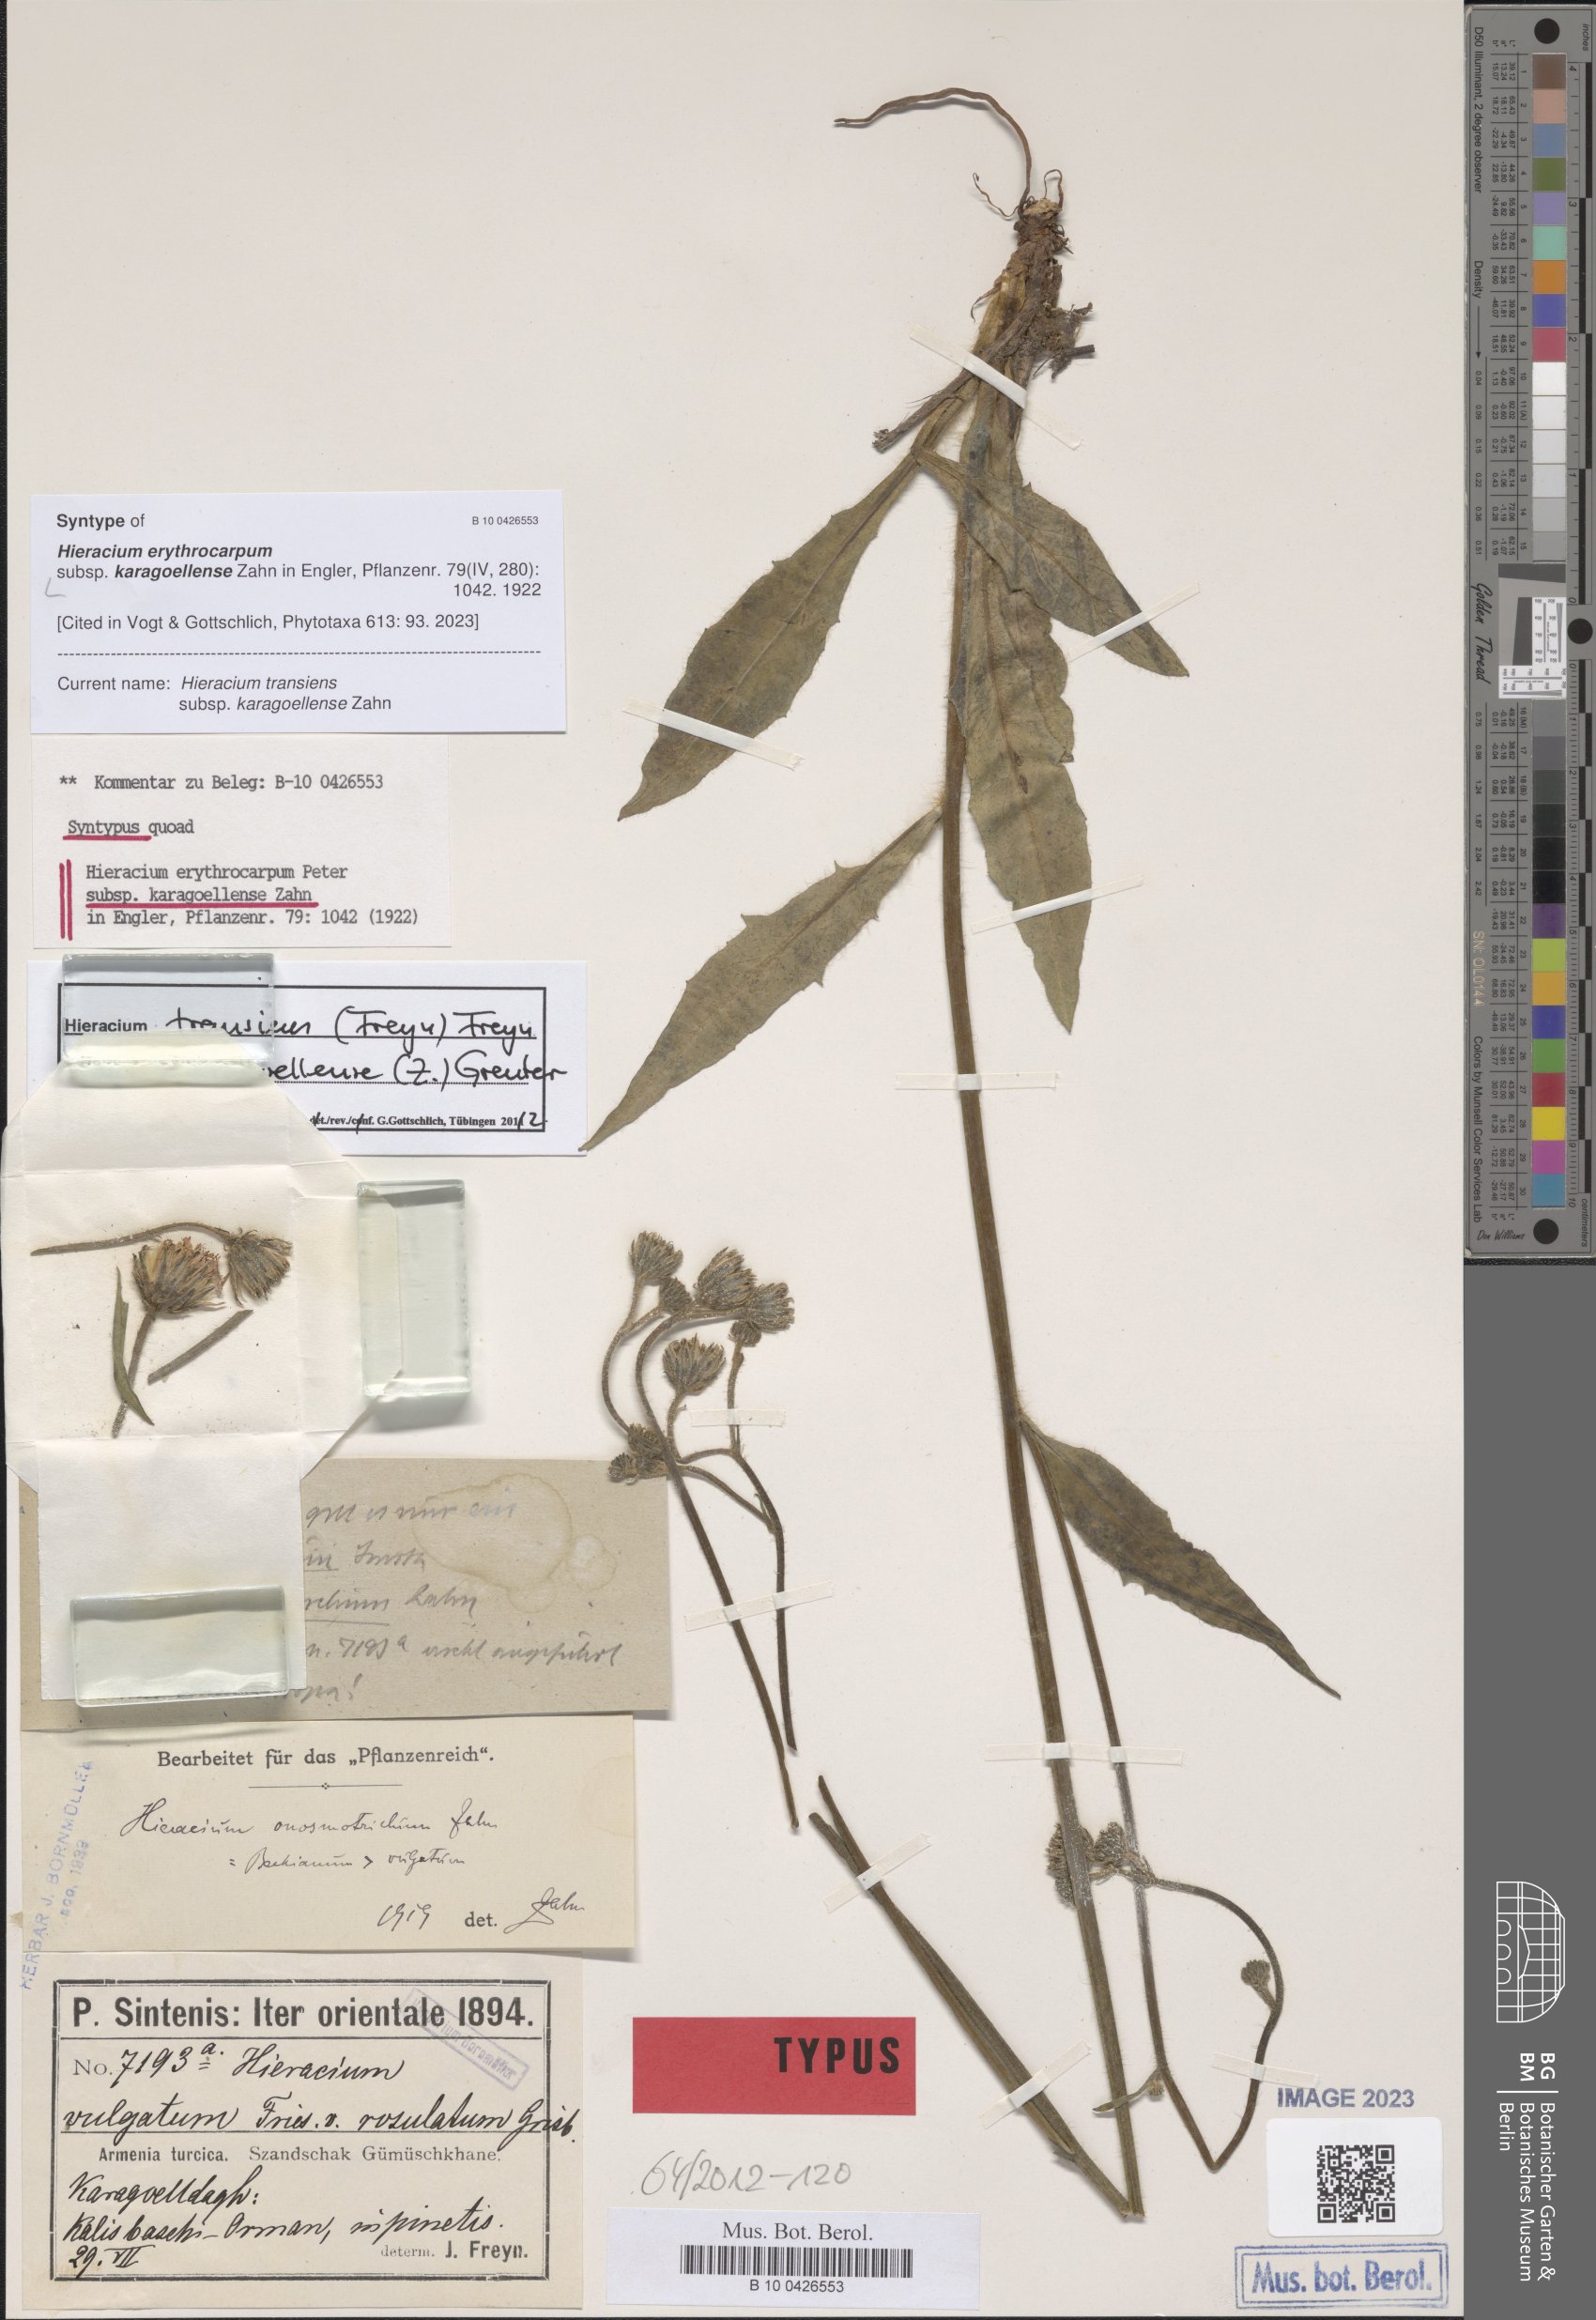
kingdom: Plantae
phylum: Tracheophyta
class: Magnoliopsida
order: Asterales
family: Asteraceae
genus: Hieracium
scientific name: Hieracium transiens
